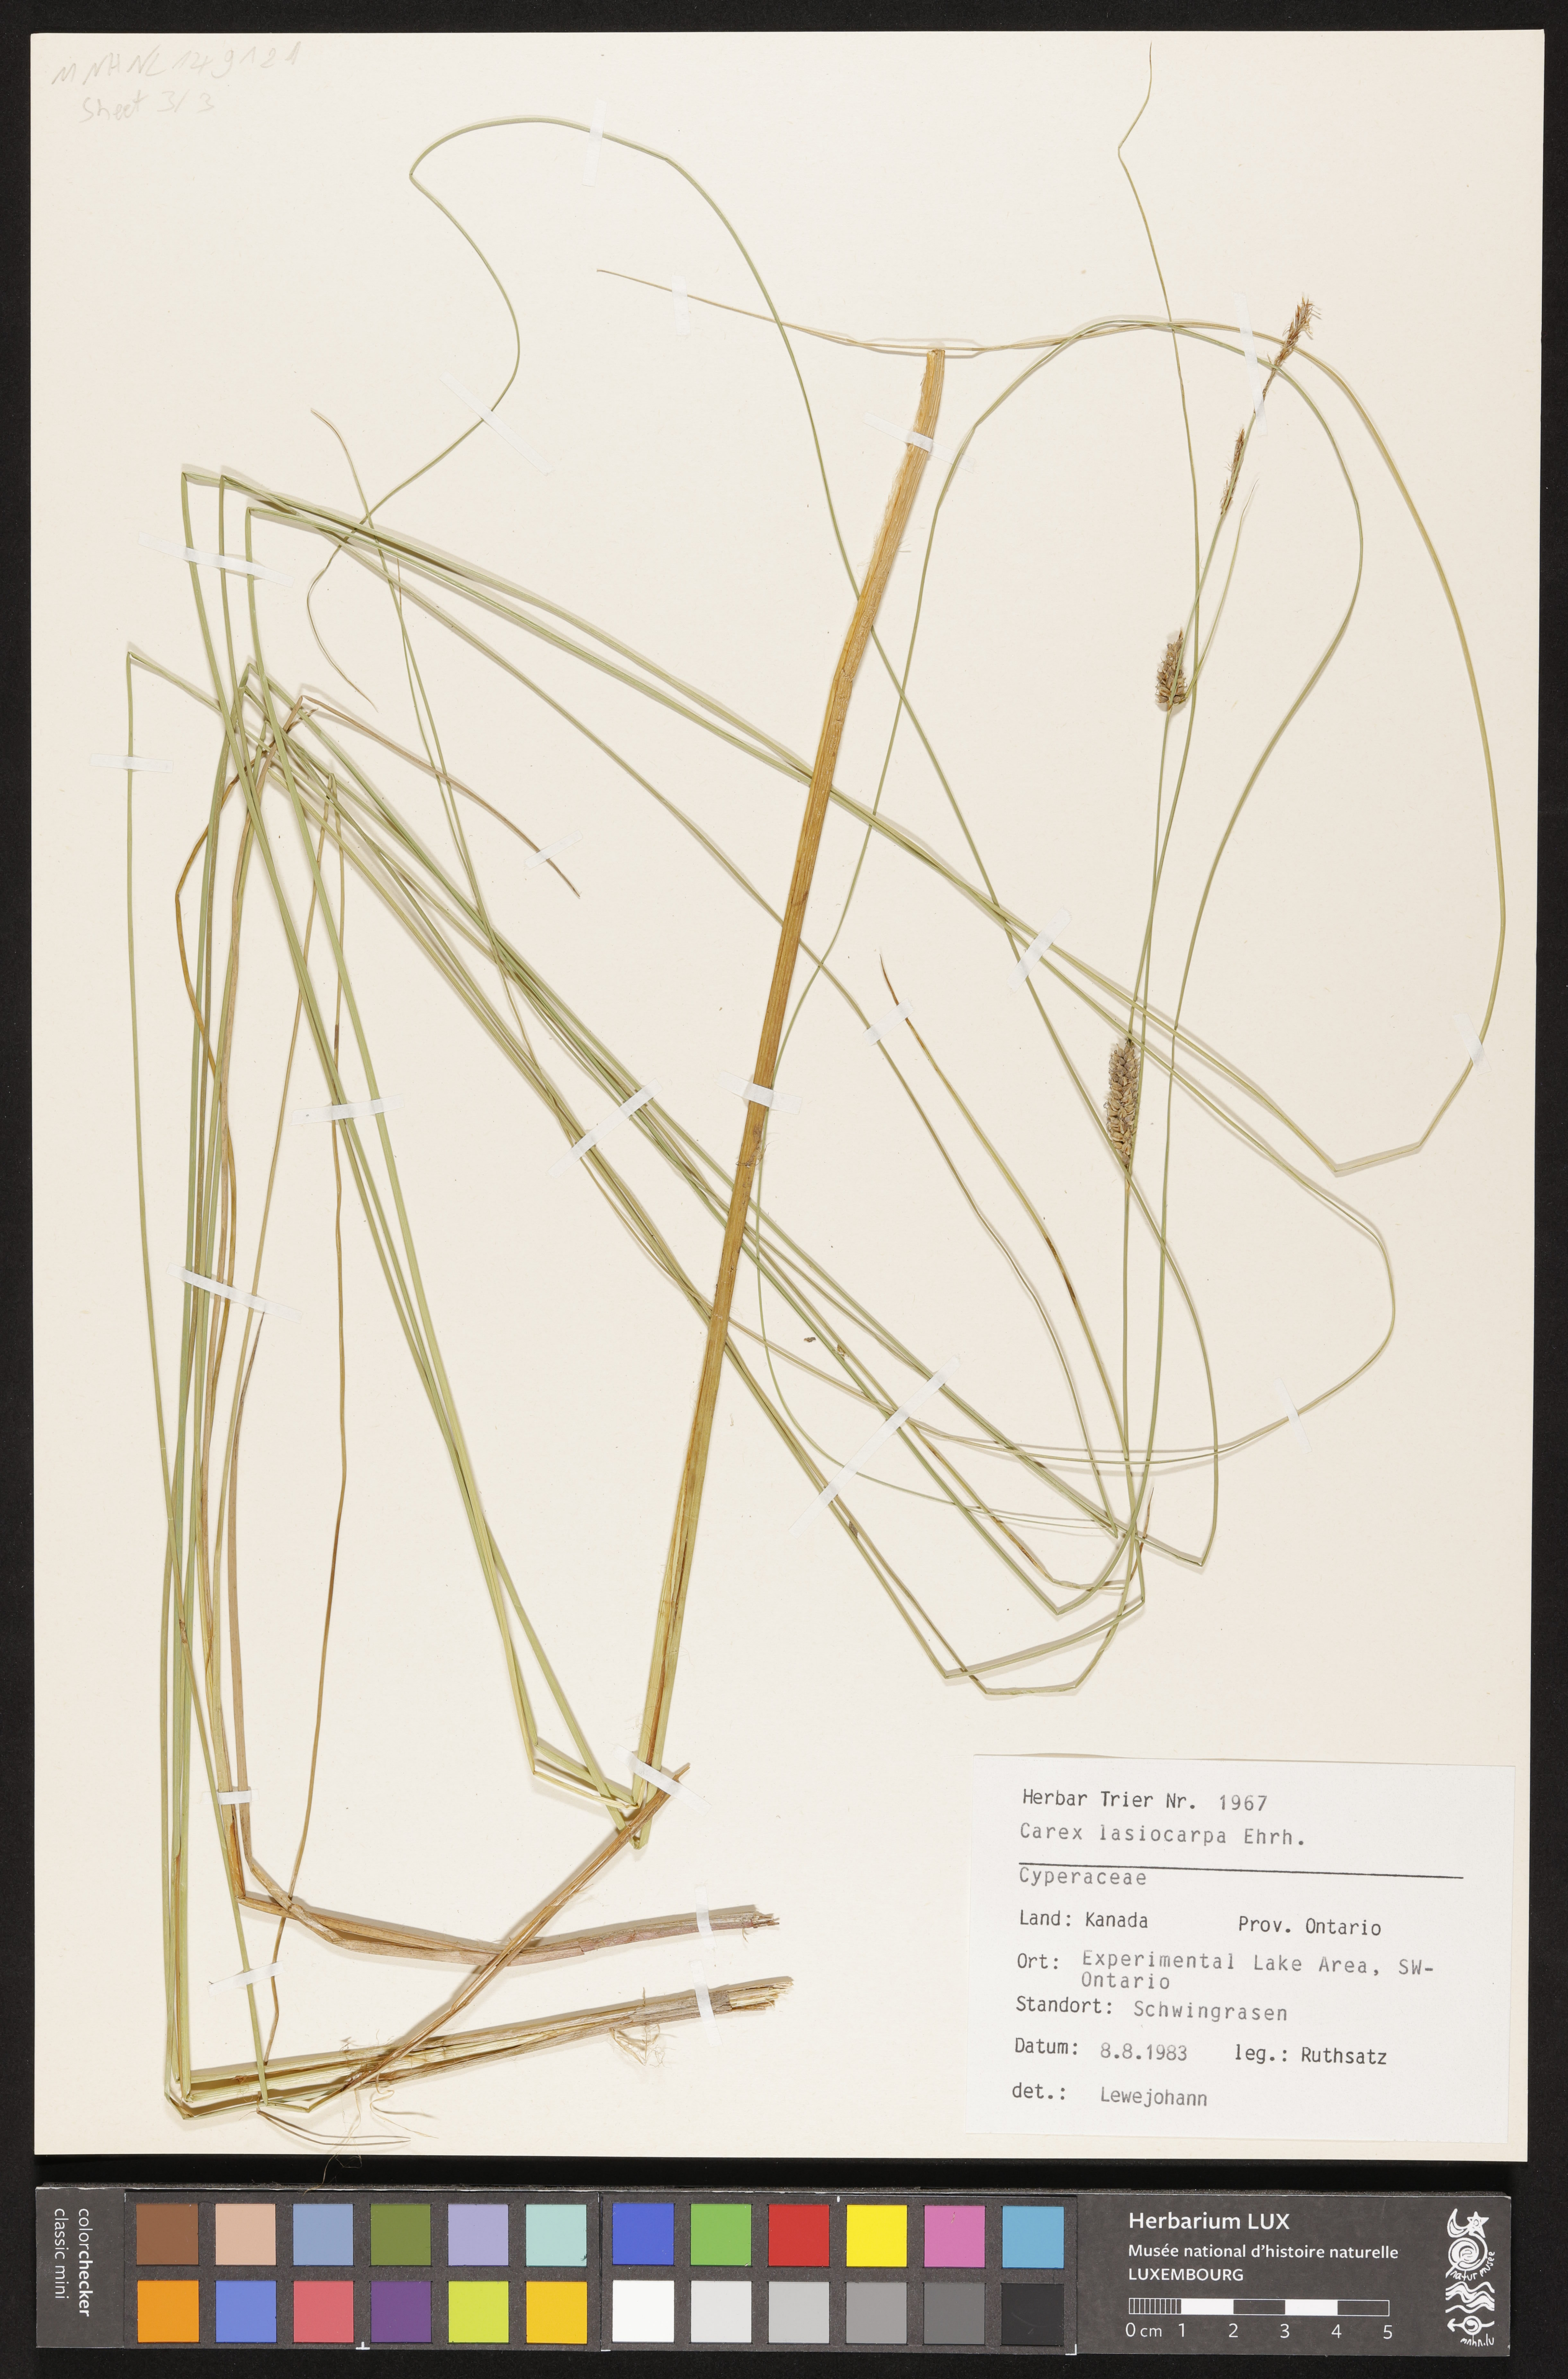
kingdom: Plantae
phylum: Tracheophyta
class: Liliopsida
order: Poales
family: Cyperaceae
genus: Carex
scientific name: Carex lasiocarpa
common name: Slender sedge
